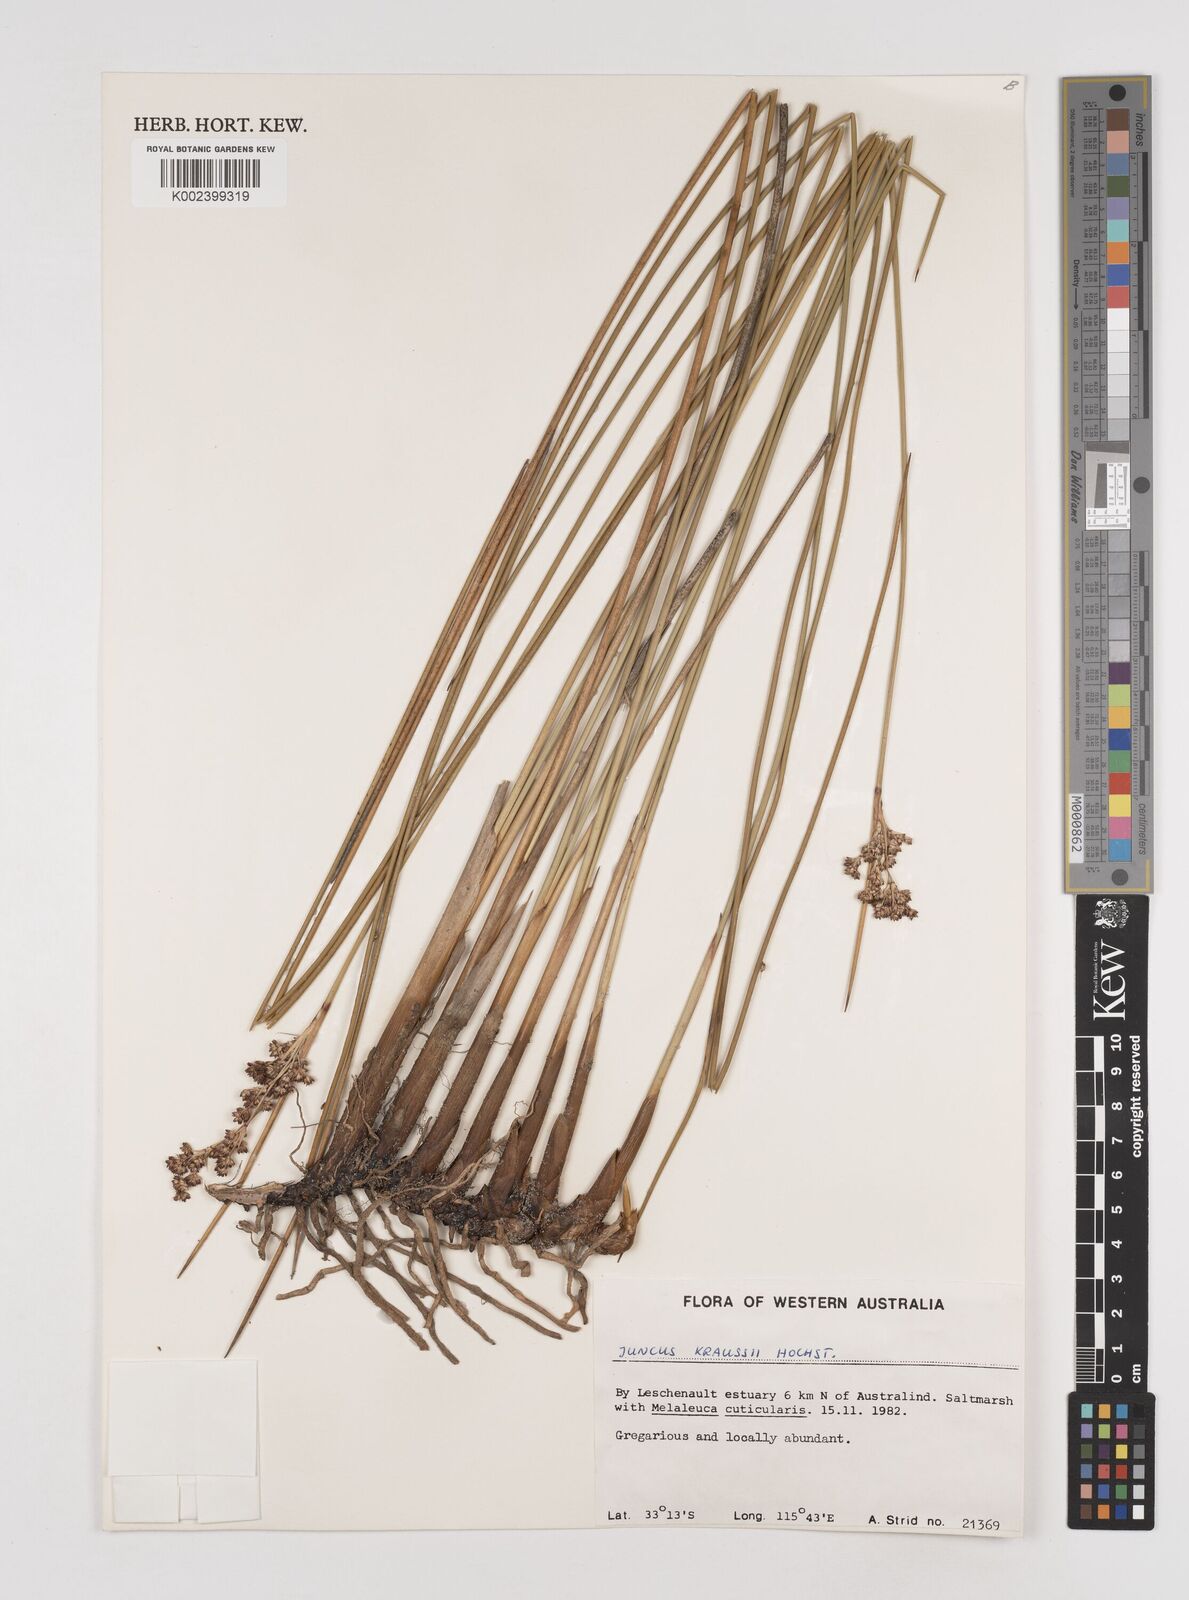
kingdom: Plantae
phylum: Tracheophyta
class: Liliopsida
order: Poales
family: Juncaceae
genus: Juncus
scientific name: Juncus kraussii
